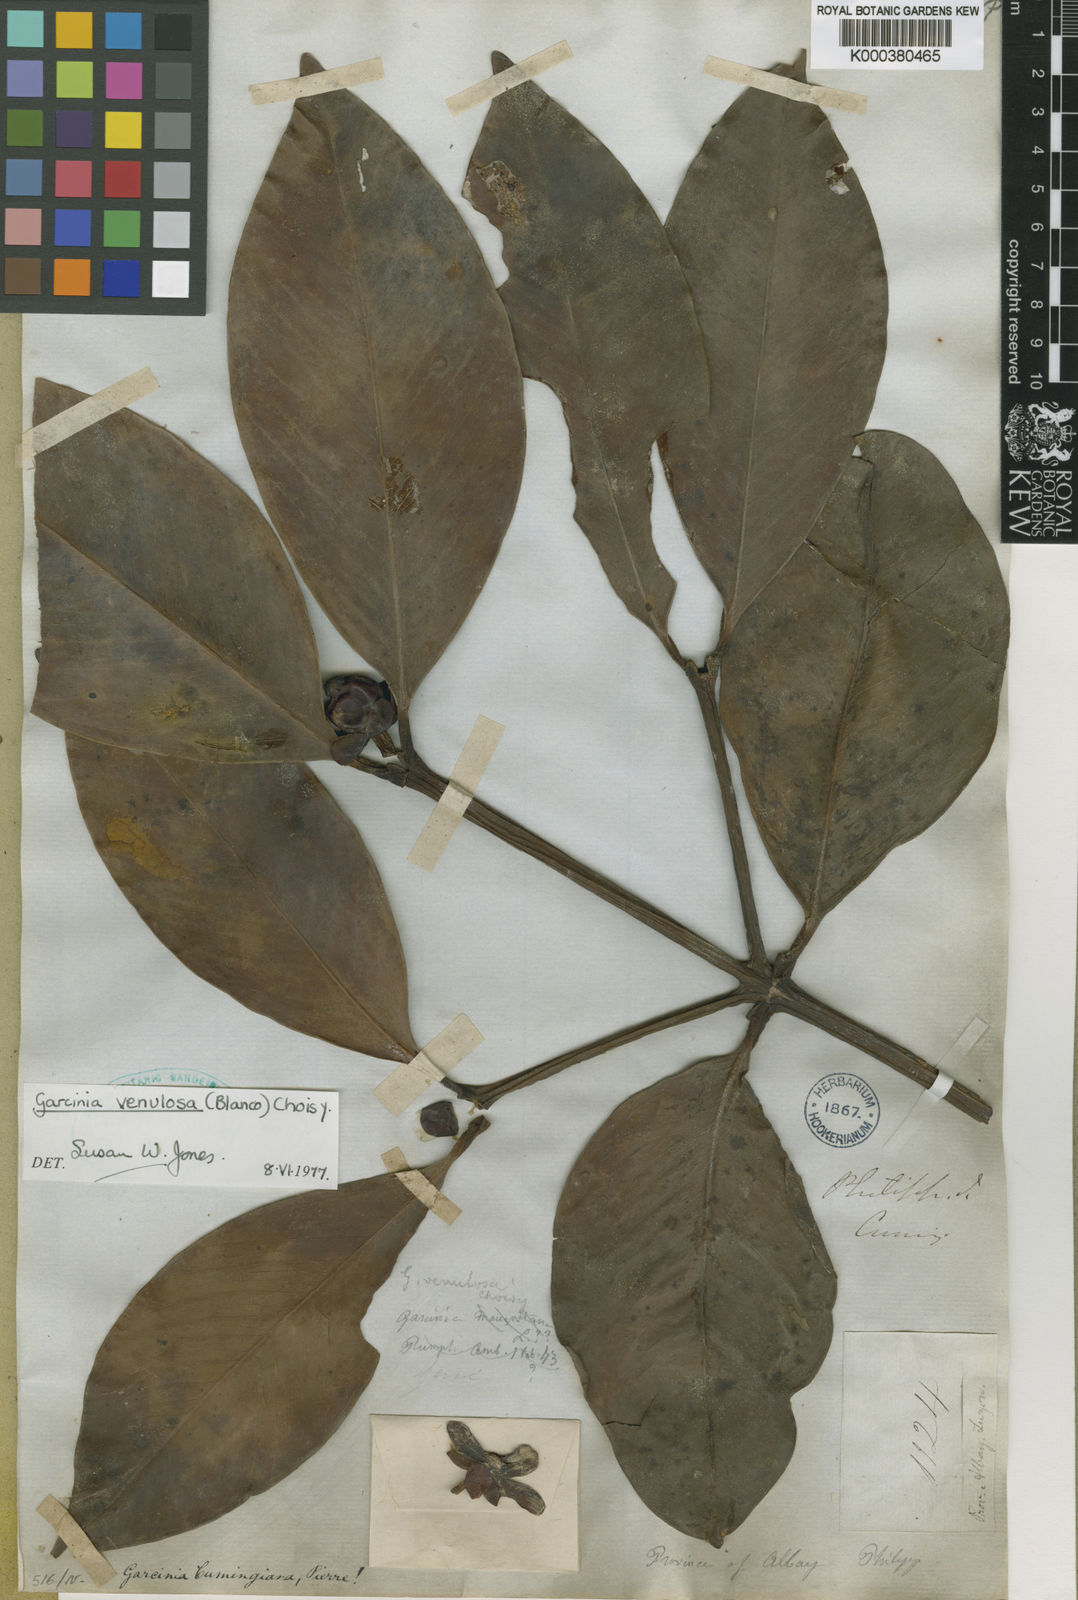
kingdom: Plantae
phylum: Tracheophyta
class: Magnoliopsida
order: Malpighiales
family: Clusiaceae
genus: Garcinia
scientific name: Garcinia venulosa
